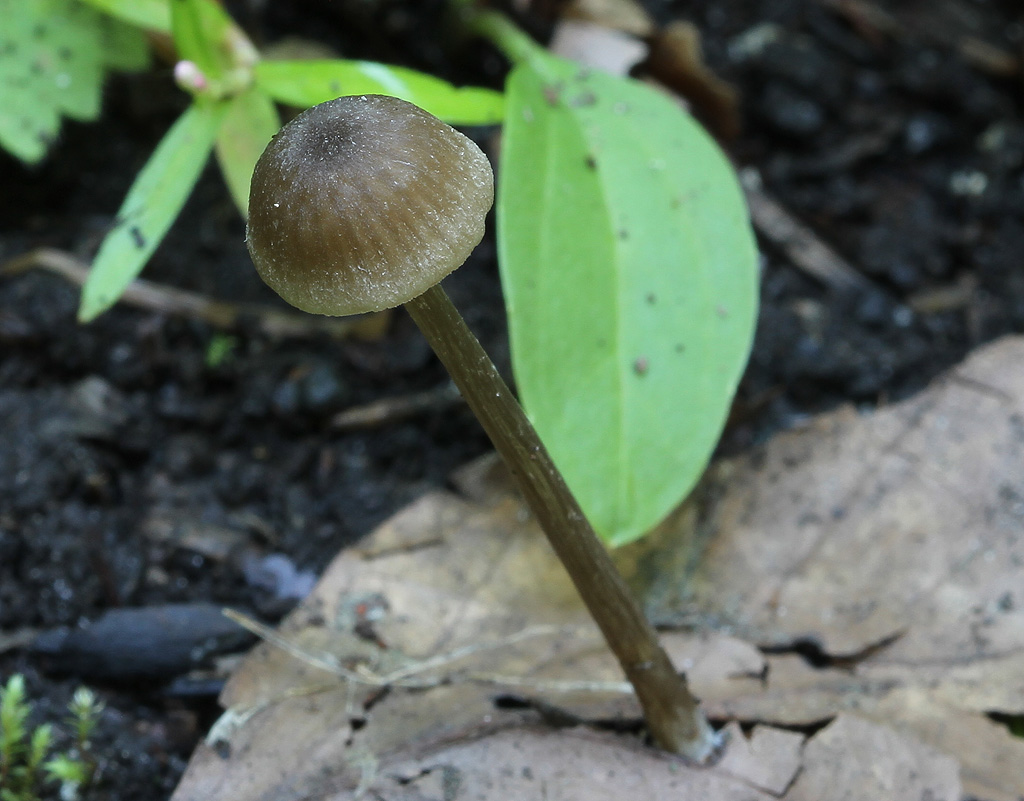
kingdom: Fungi
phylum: Basidiomycota
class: Agaricomycetes
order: Agaricales
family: Entolomataceae
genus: Entoloma
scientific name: Entoloma cuneatum
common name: dunstokket rødblad
